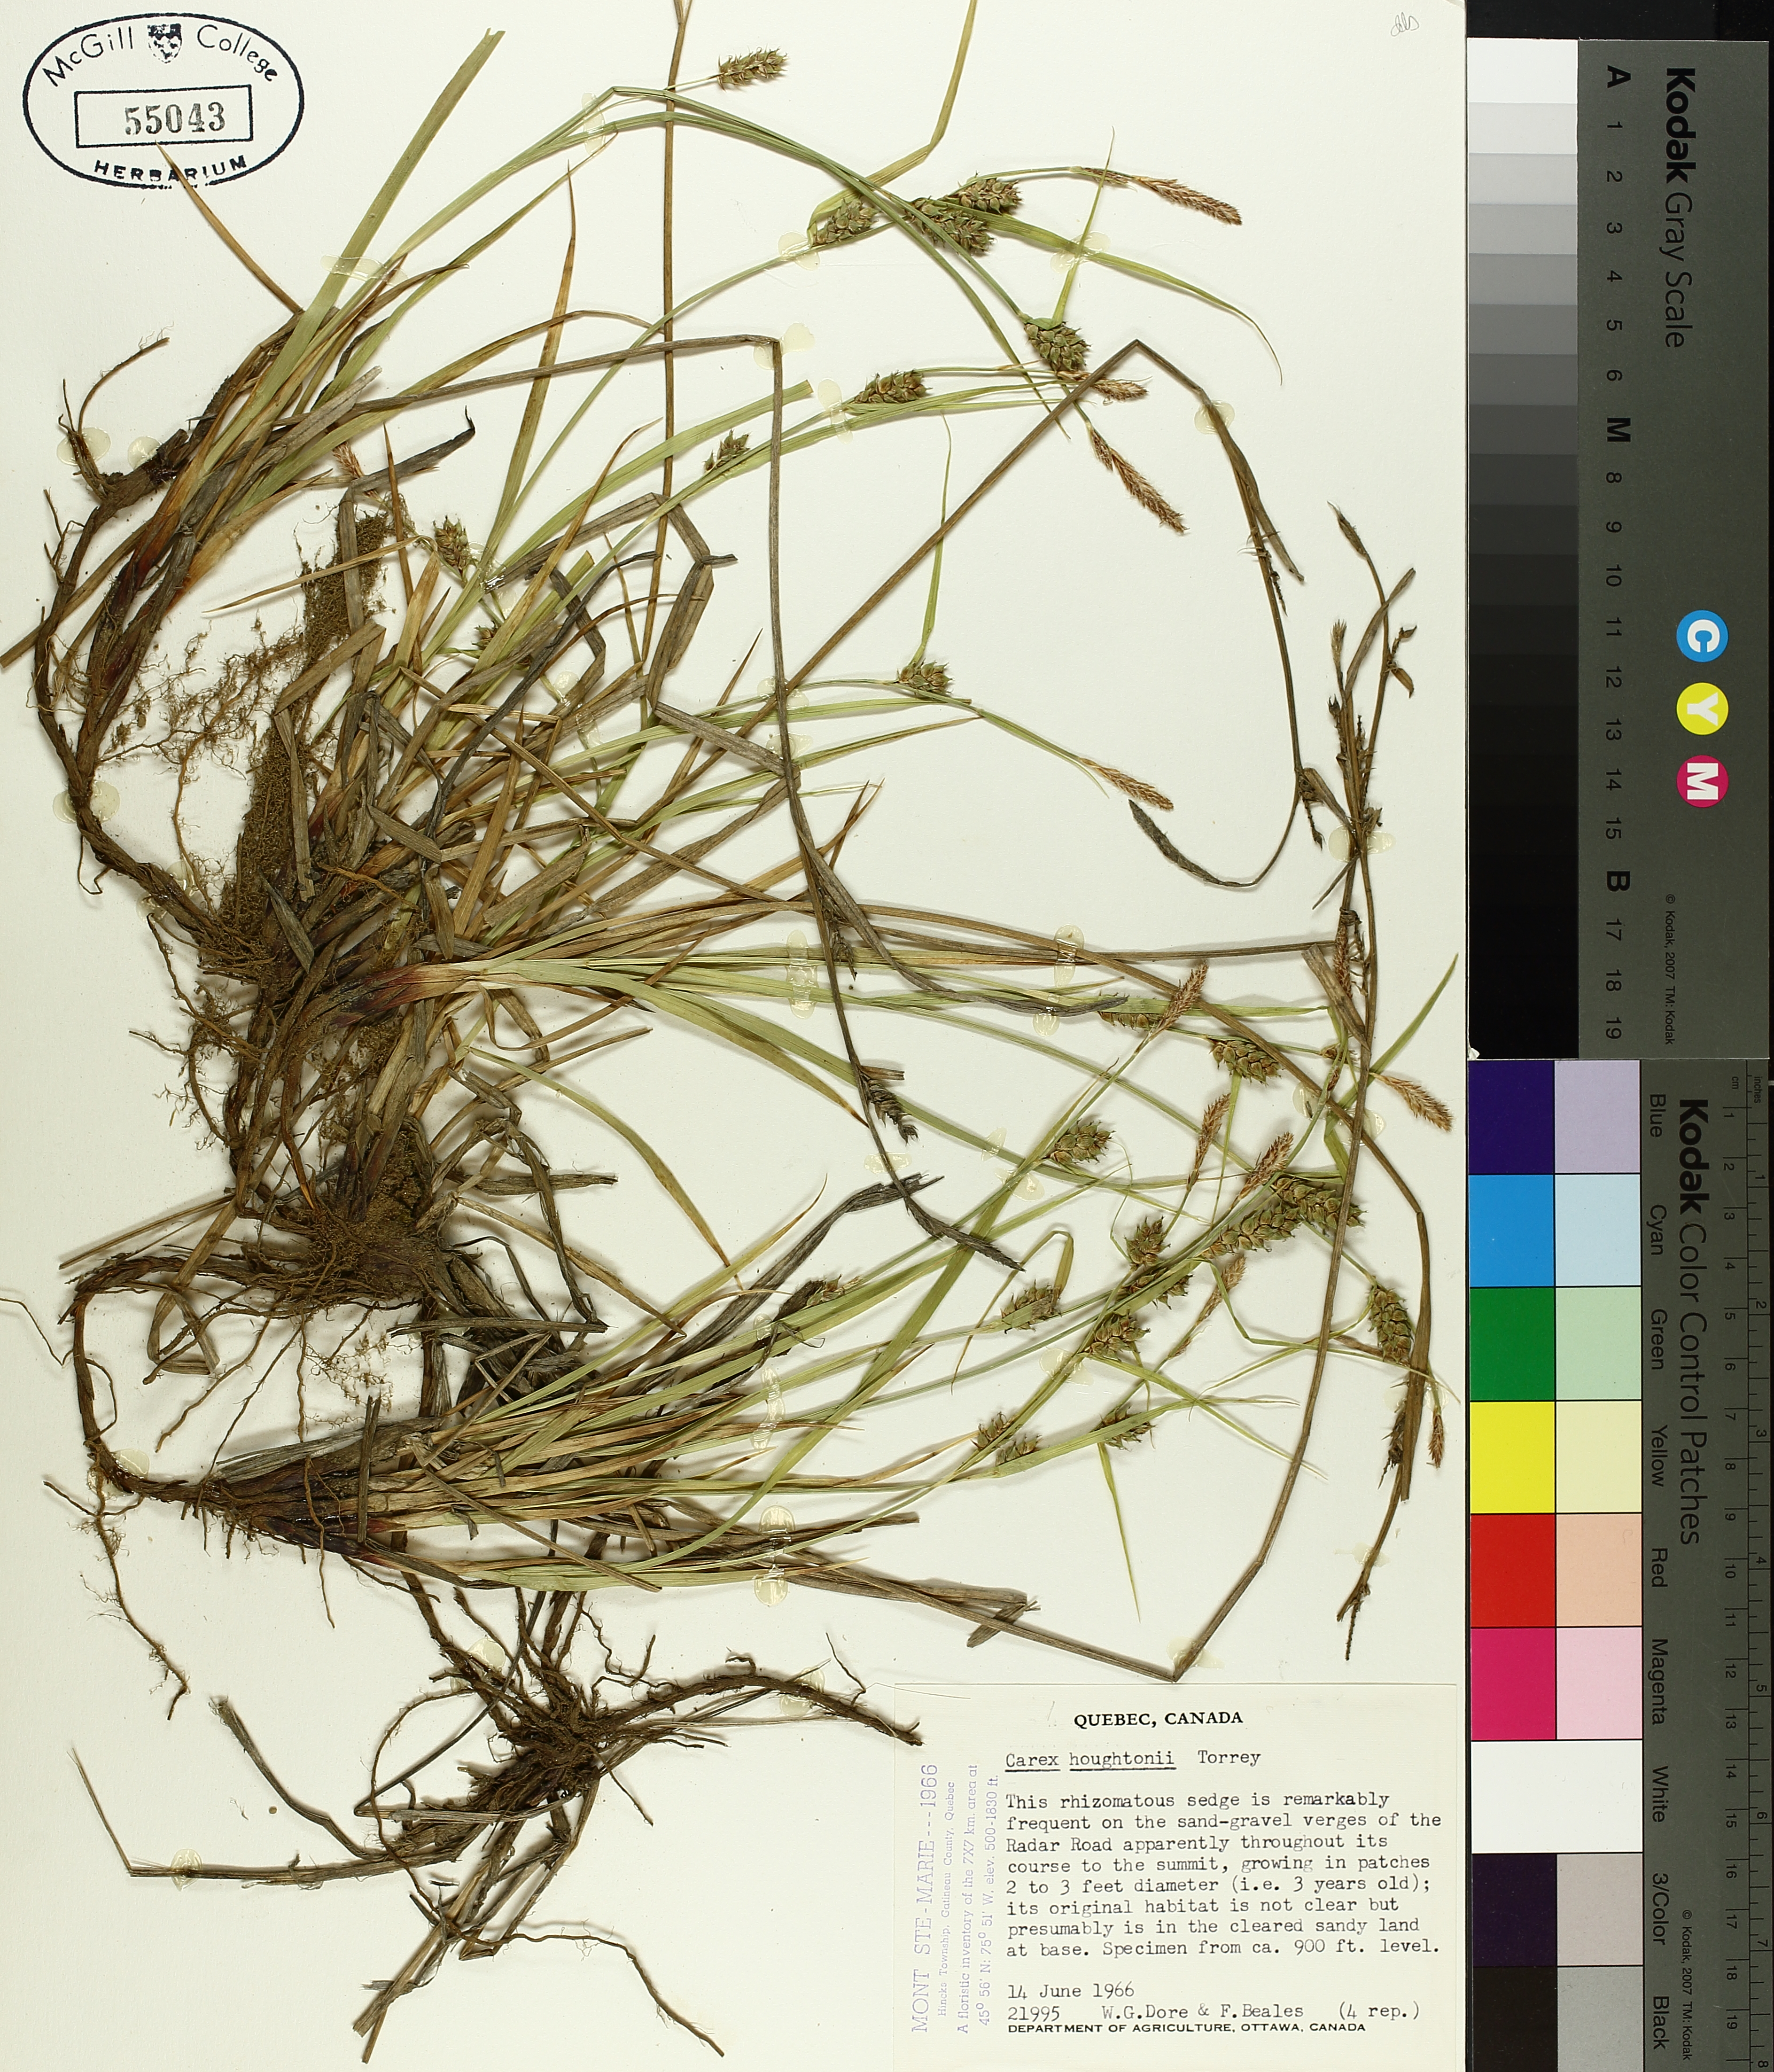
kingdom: Plantae
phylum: Tracheophyta
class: Liliopsida
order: Poales
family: Cyperaceae
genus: Carex
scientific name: Carex houghtoniana
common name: Houghton's sedge
